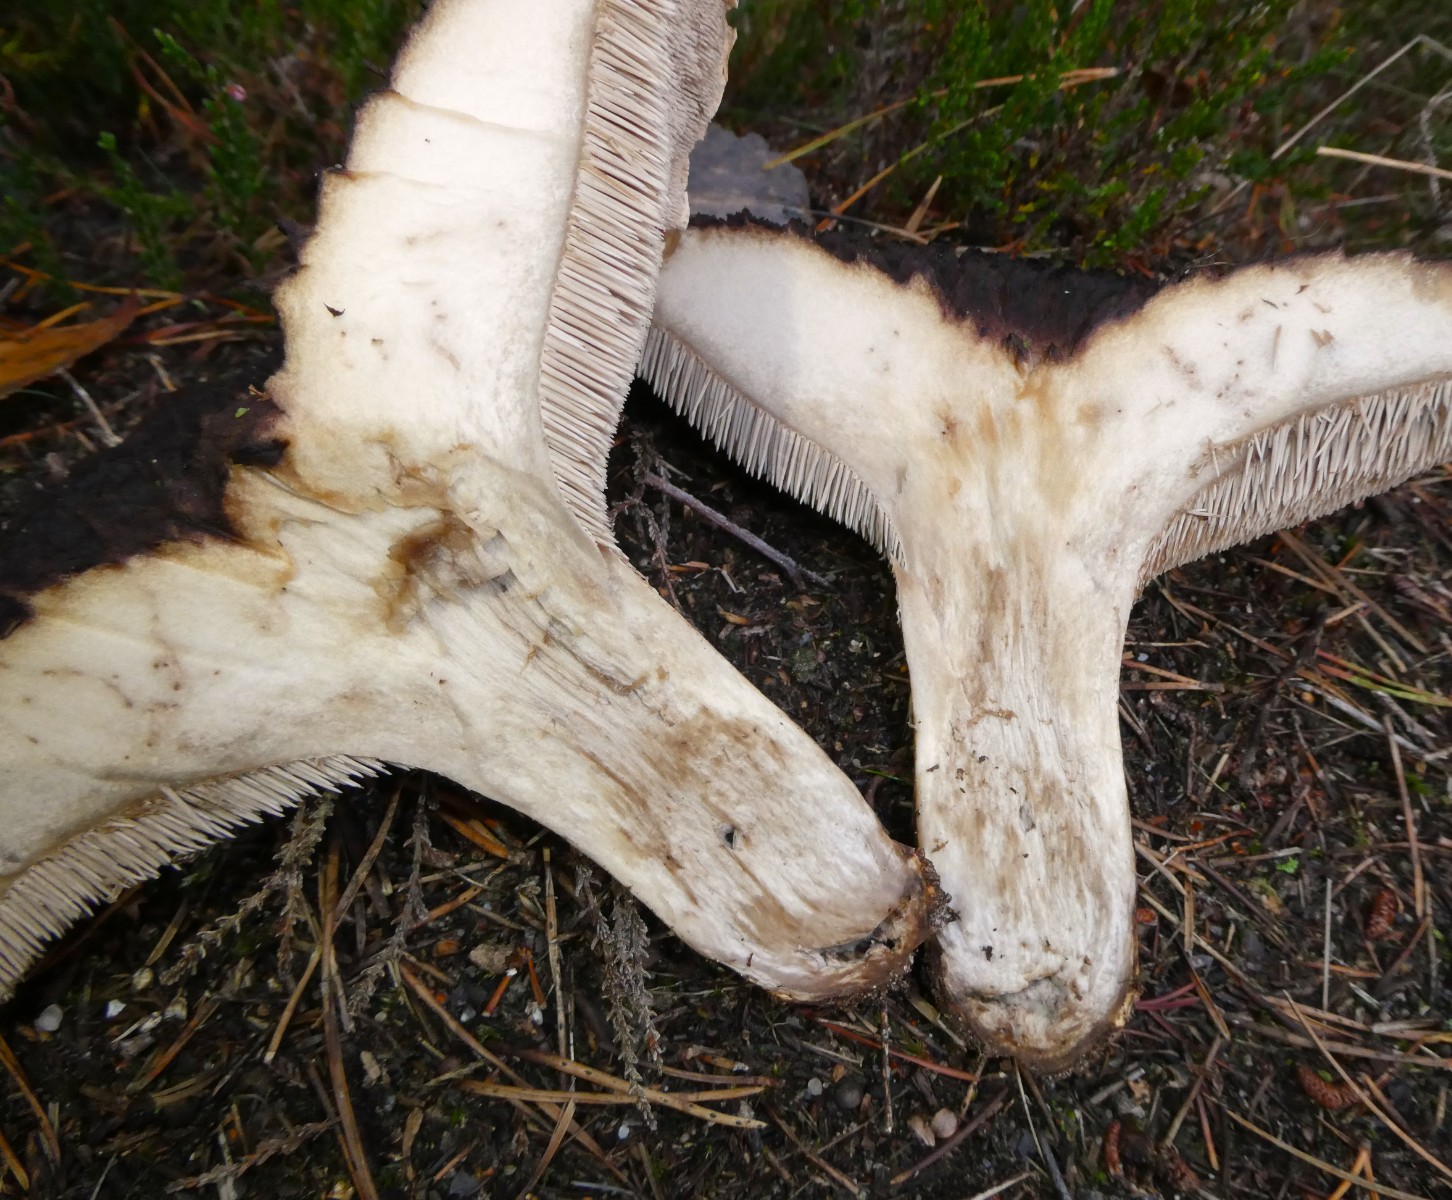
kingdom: Fungi
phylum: Basidiomycota
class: Agaricomycetes
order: Thelephorales
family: Bankeraceae
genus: Sarcodon
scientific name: Sarcodon squamosus
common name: småskællet kødpigsvamp
